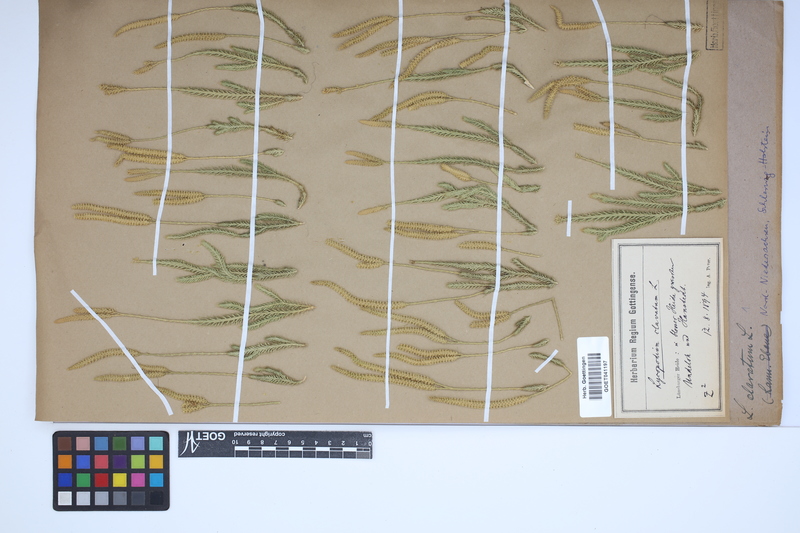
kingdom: Plantae
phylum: Tracheophyta
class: Lycopodiopsida
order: Lycopodiales
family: Lycopodiaceae
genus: Lycopodium
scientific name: Lycopodium clavatum
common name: Stag's-horn clubmoss
